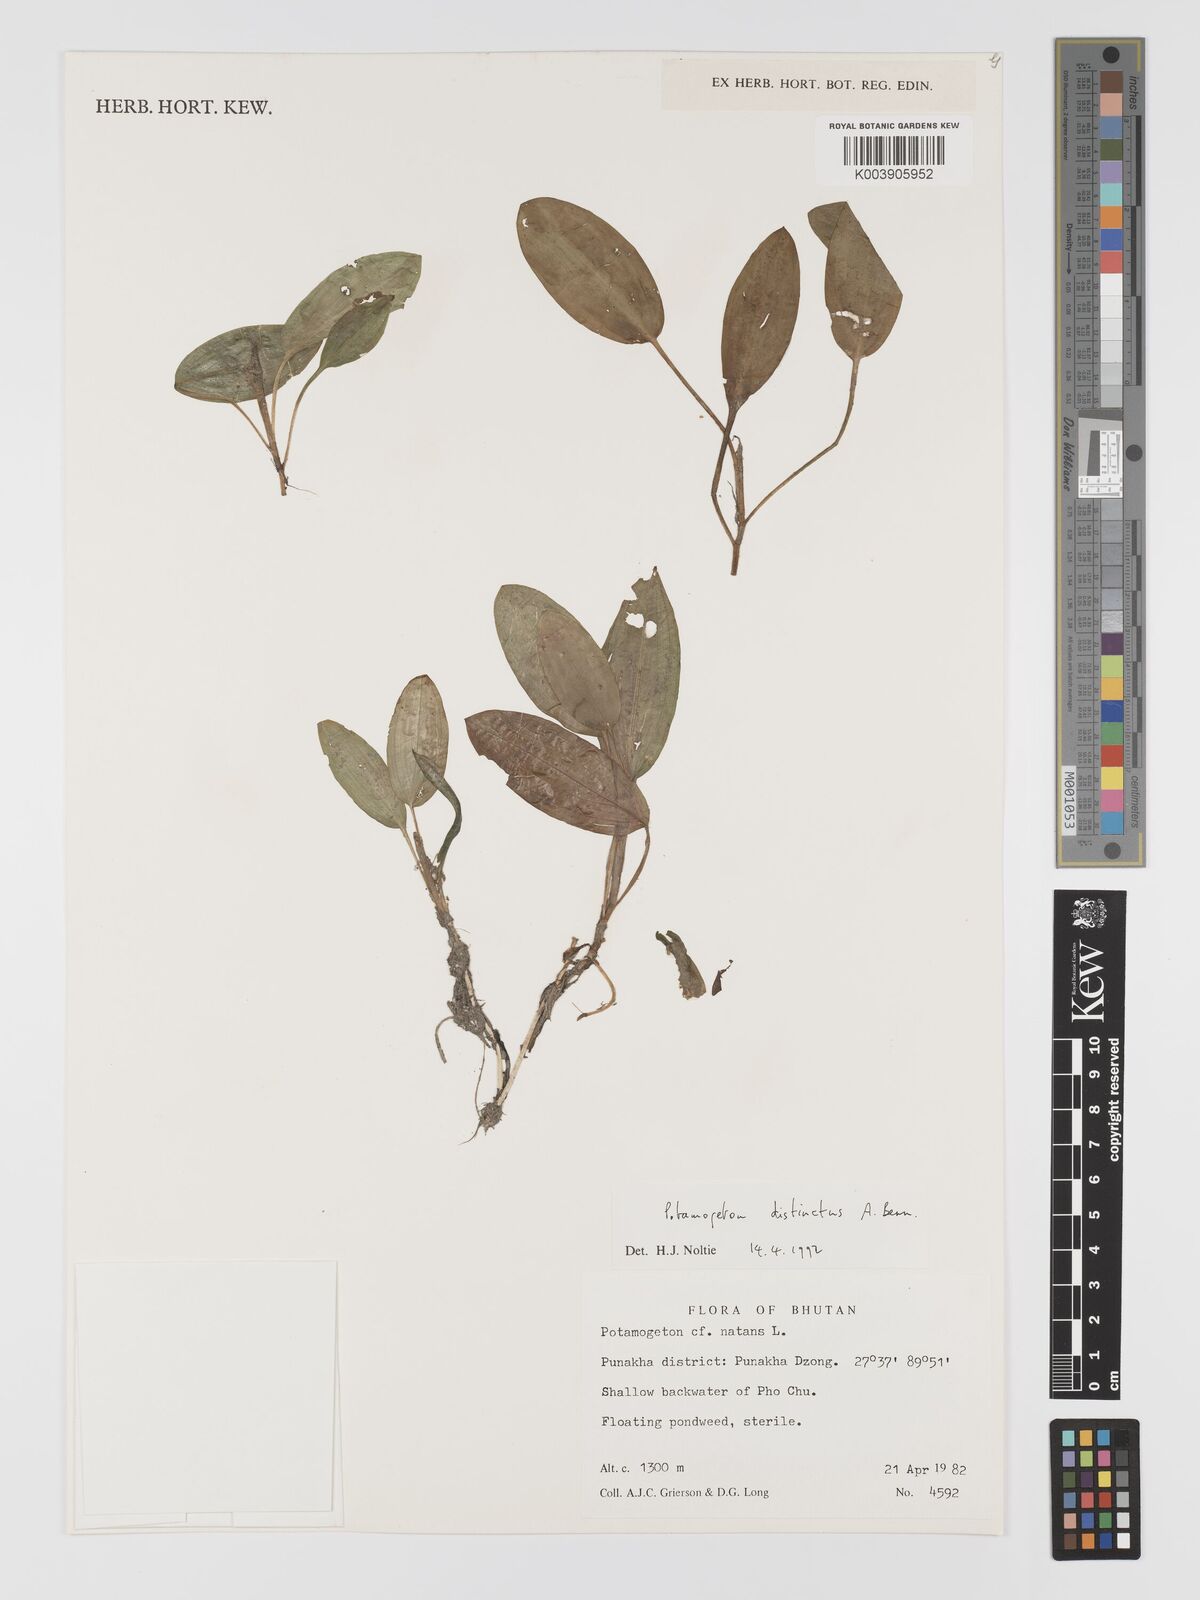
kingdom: Plantae
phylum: Tracheophyta
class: Liliopsida
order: Alismatales
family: Potamogetonaceae
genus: Potamogeton
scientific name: Potamogeton distinctus
